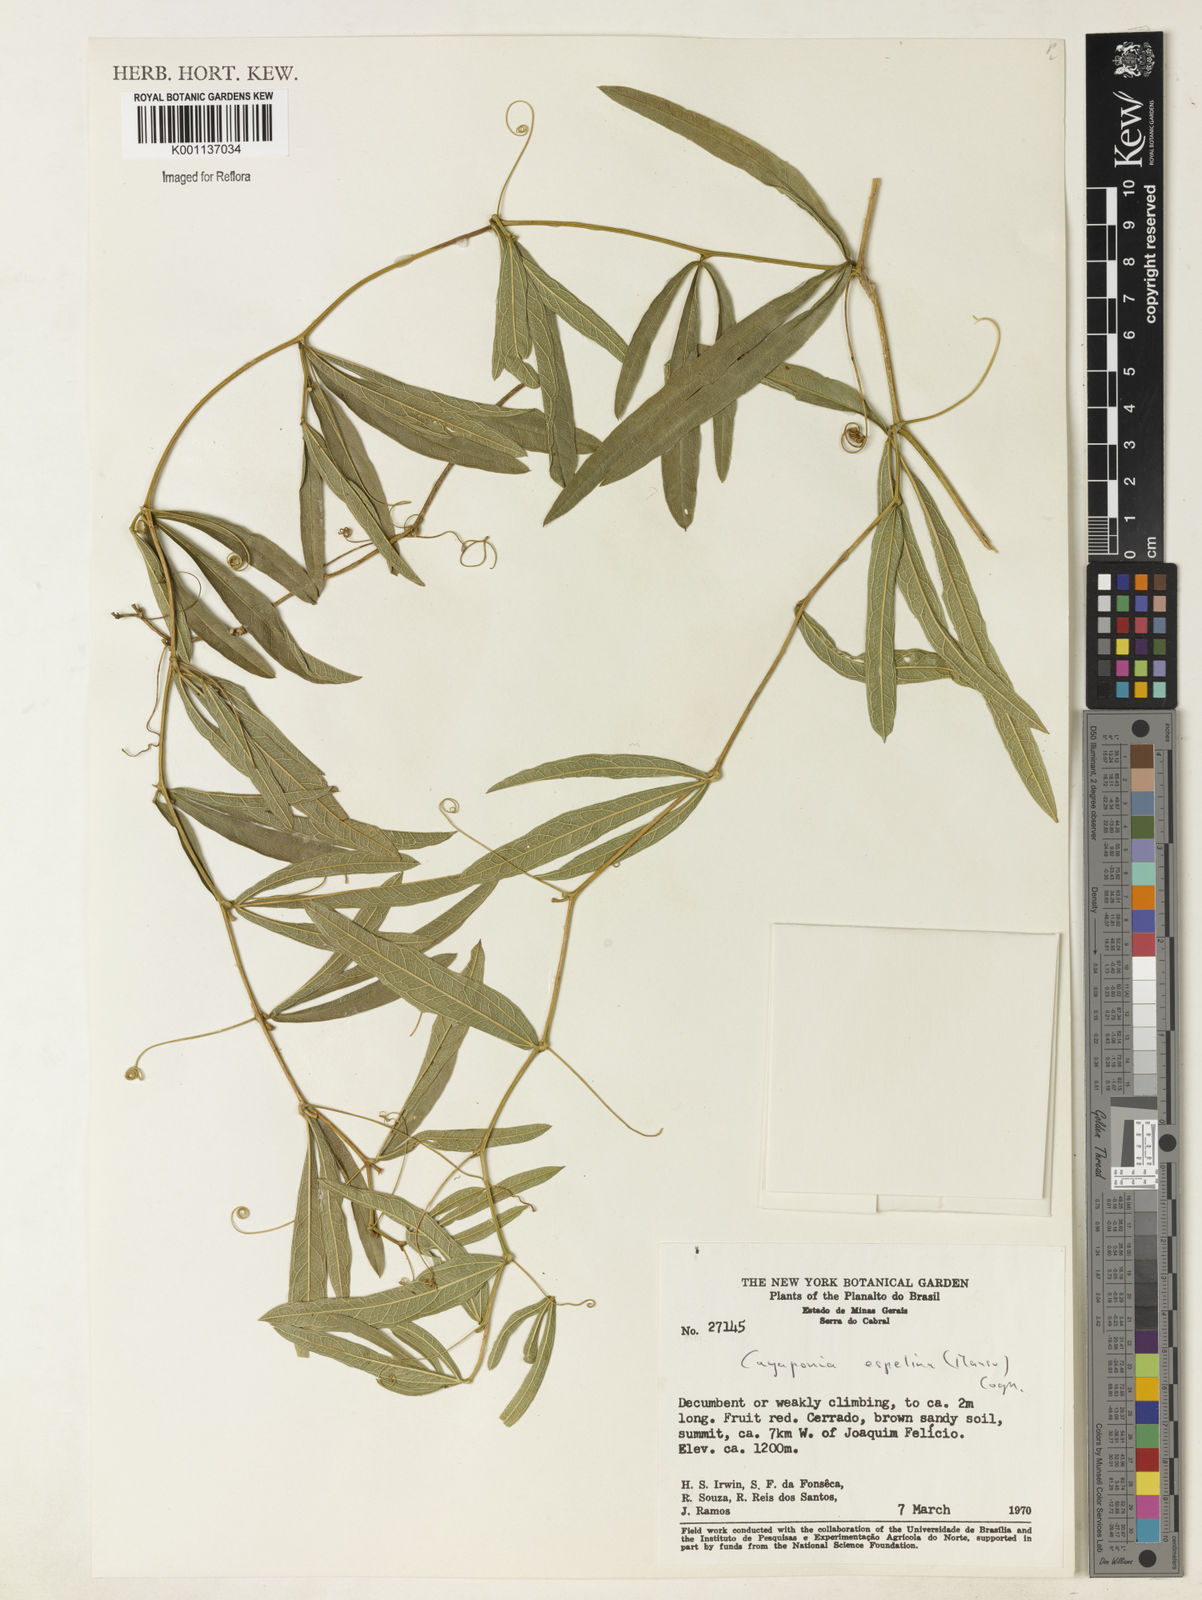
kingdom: Plantae
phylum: Tracheophyta
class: Magnoliopsida
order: Cucurbitales
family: Cucurbitaceae
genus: Cayaponia
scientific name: Cayaponia espelina
